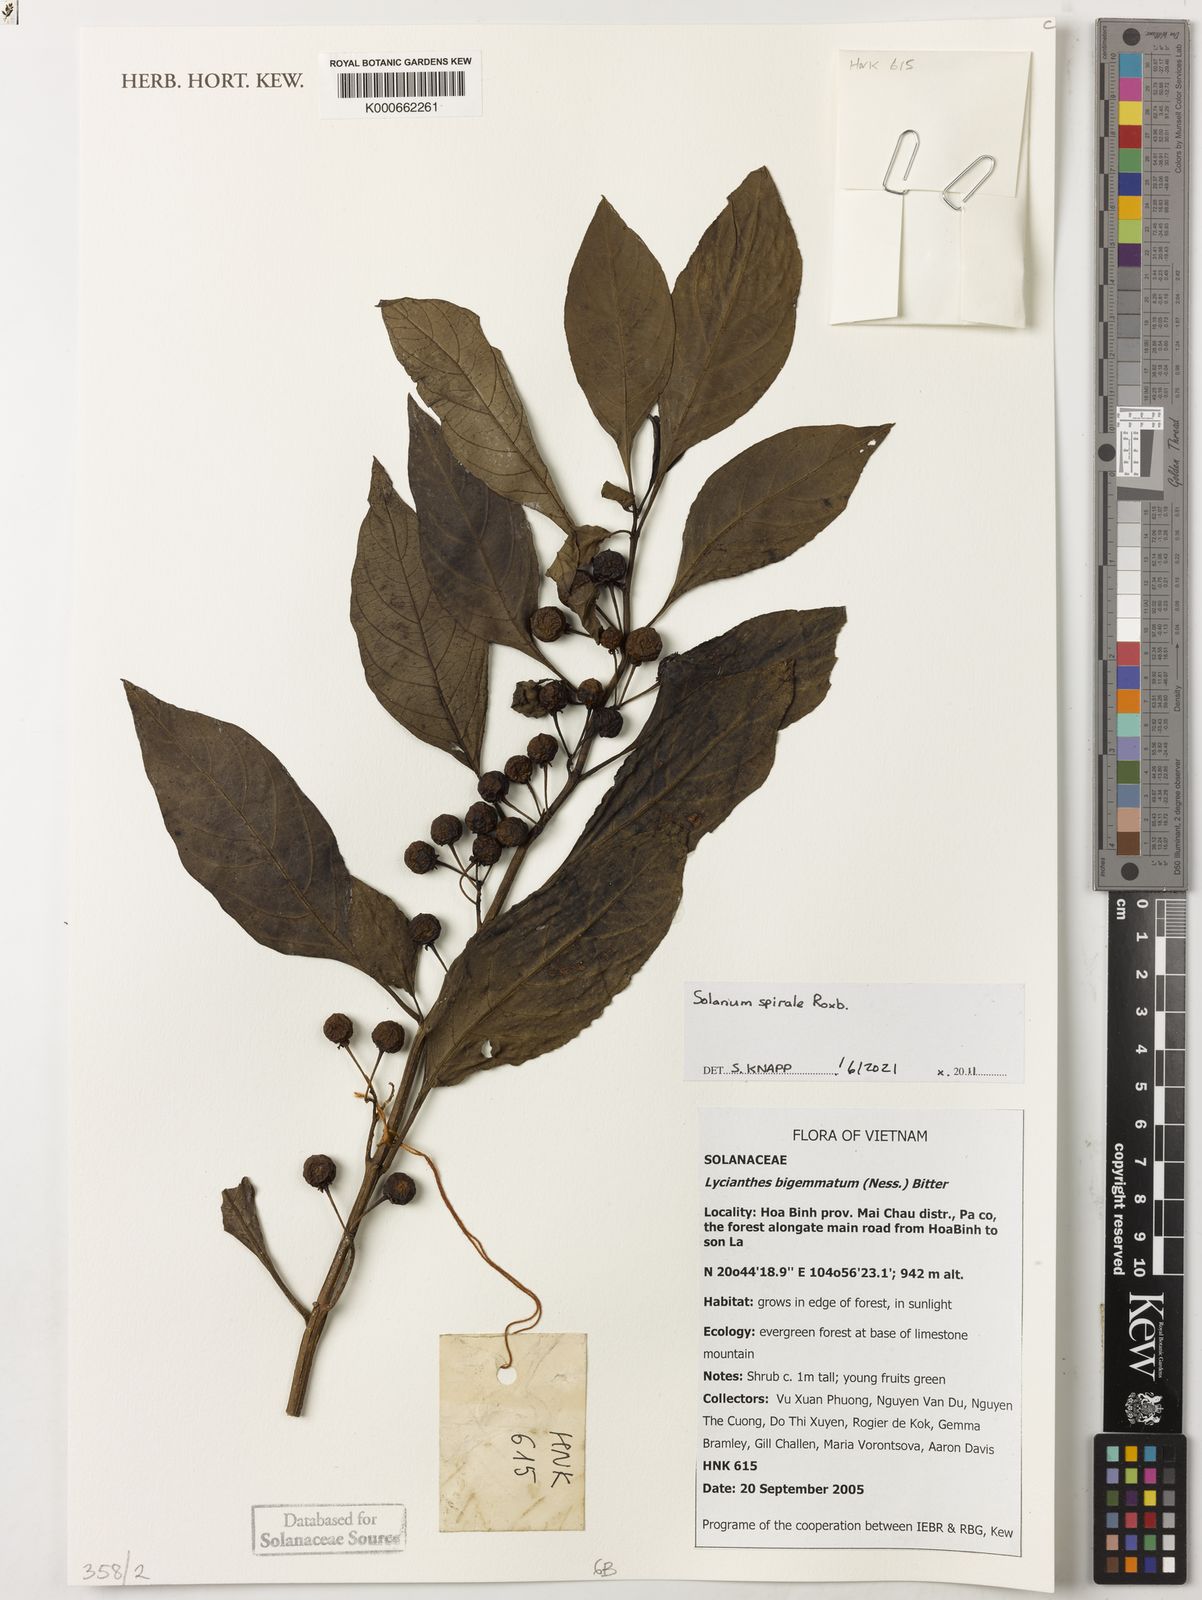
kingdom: Plantae
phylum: Tracheophyta
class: Magnoliopsida
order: Solanales
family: Solanaceae
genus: Solanum
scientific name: Solanum spirale
